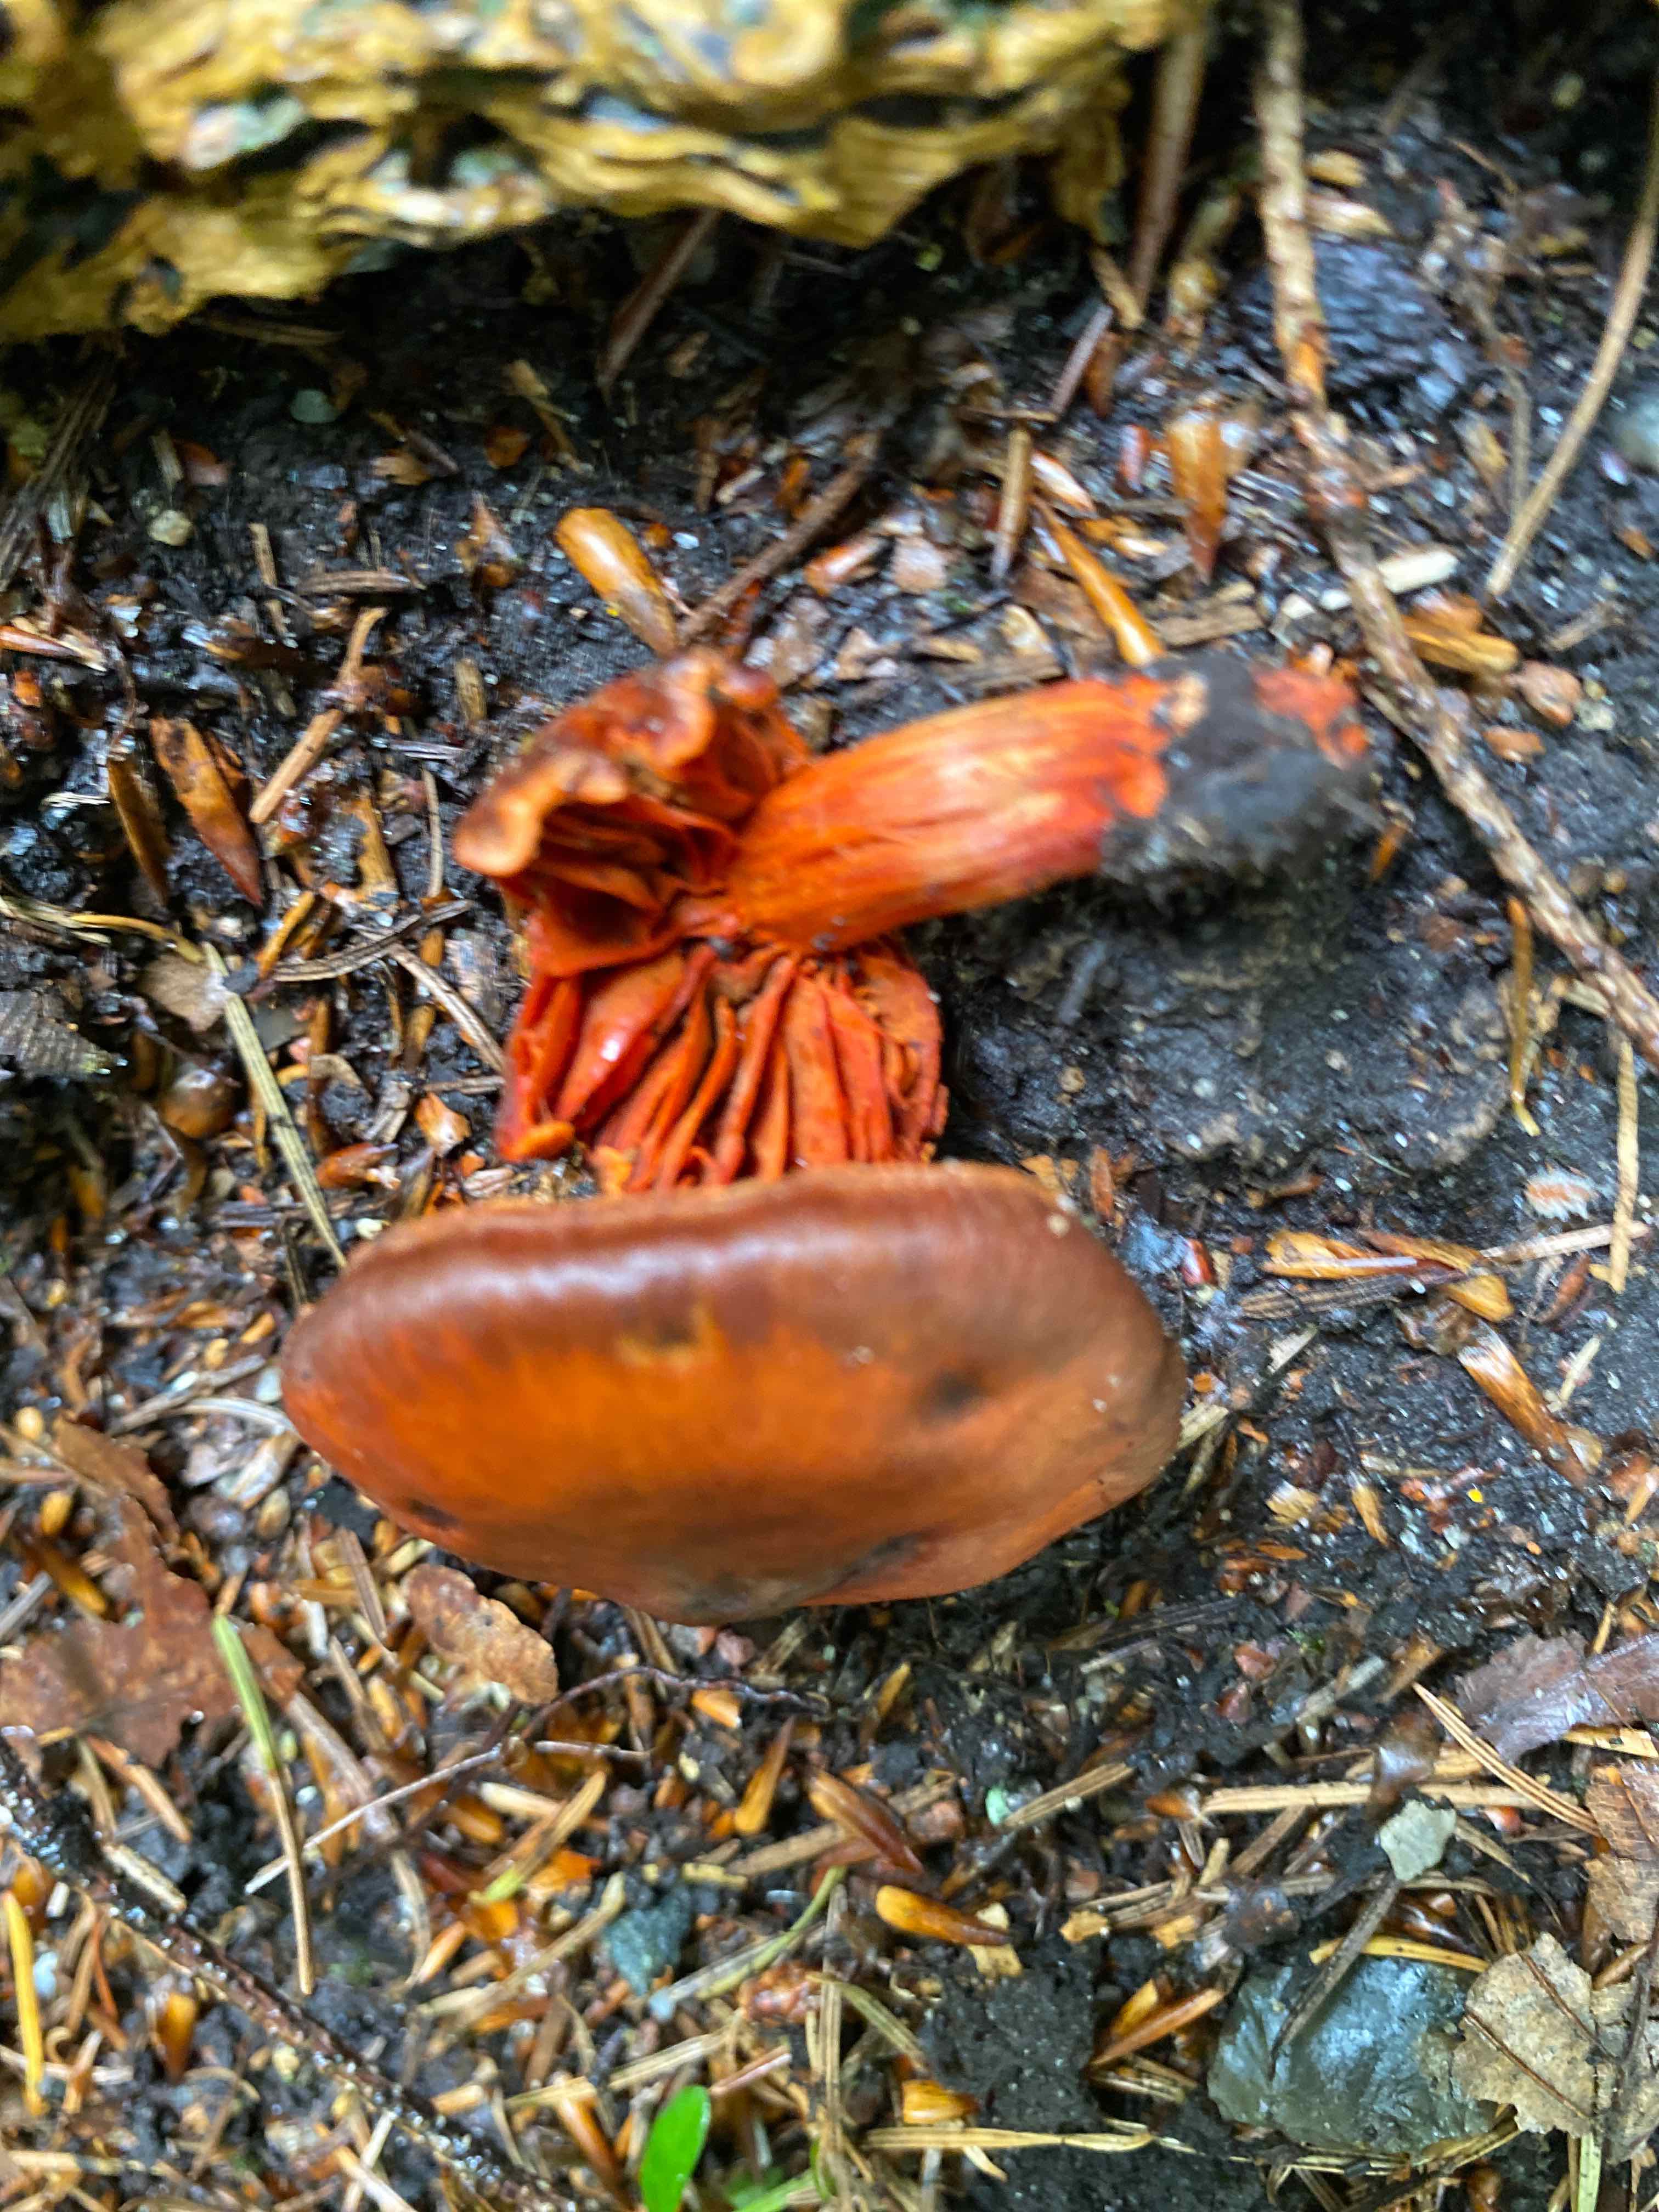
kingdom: Fungi
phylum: Basidiomycota
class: Agaricomycetes
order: Agaricales
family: Cortinariaceae
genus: Cortinarius
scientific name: Cortinarius cinnabarinus
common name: cinnober-slørhat
